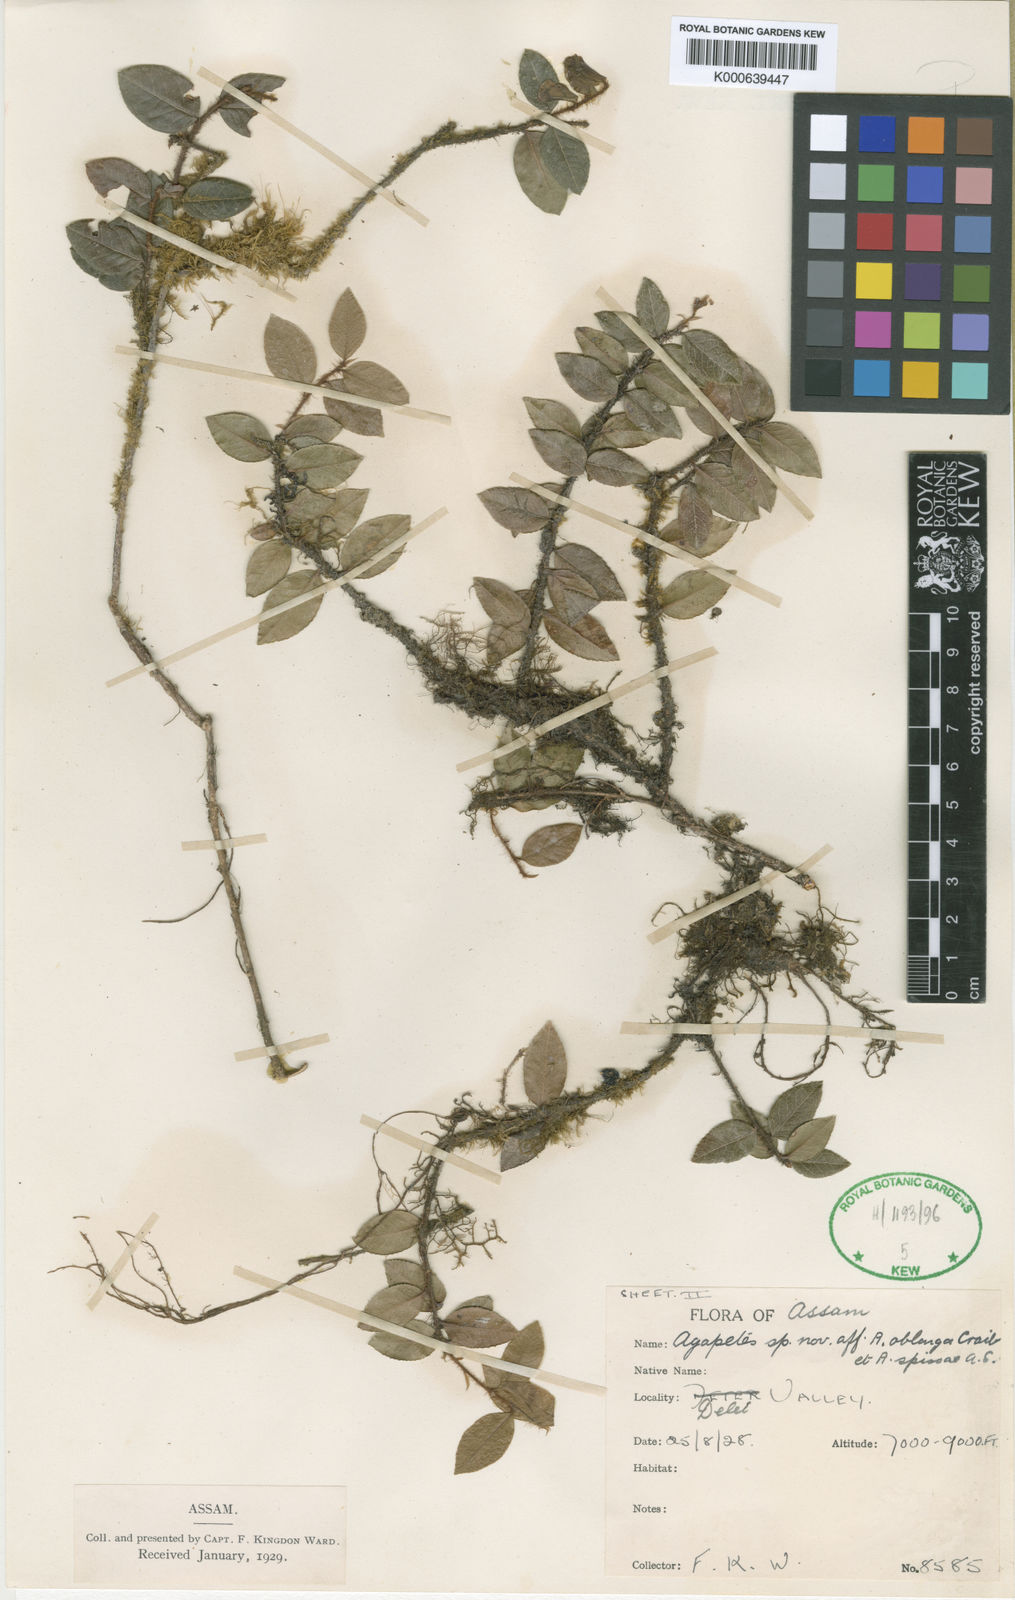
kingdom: Plantae
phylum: Tracheophyta
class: Magnoliopsida
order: Ericales
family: Ericaceae
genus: Agapetes
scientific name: Agapetes anonyma
